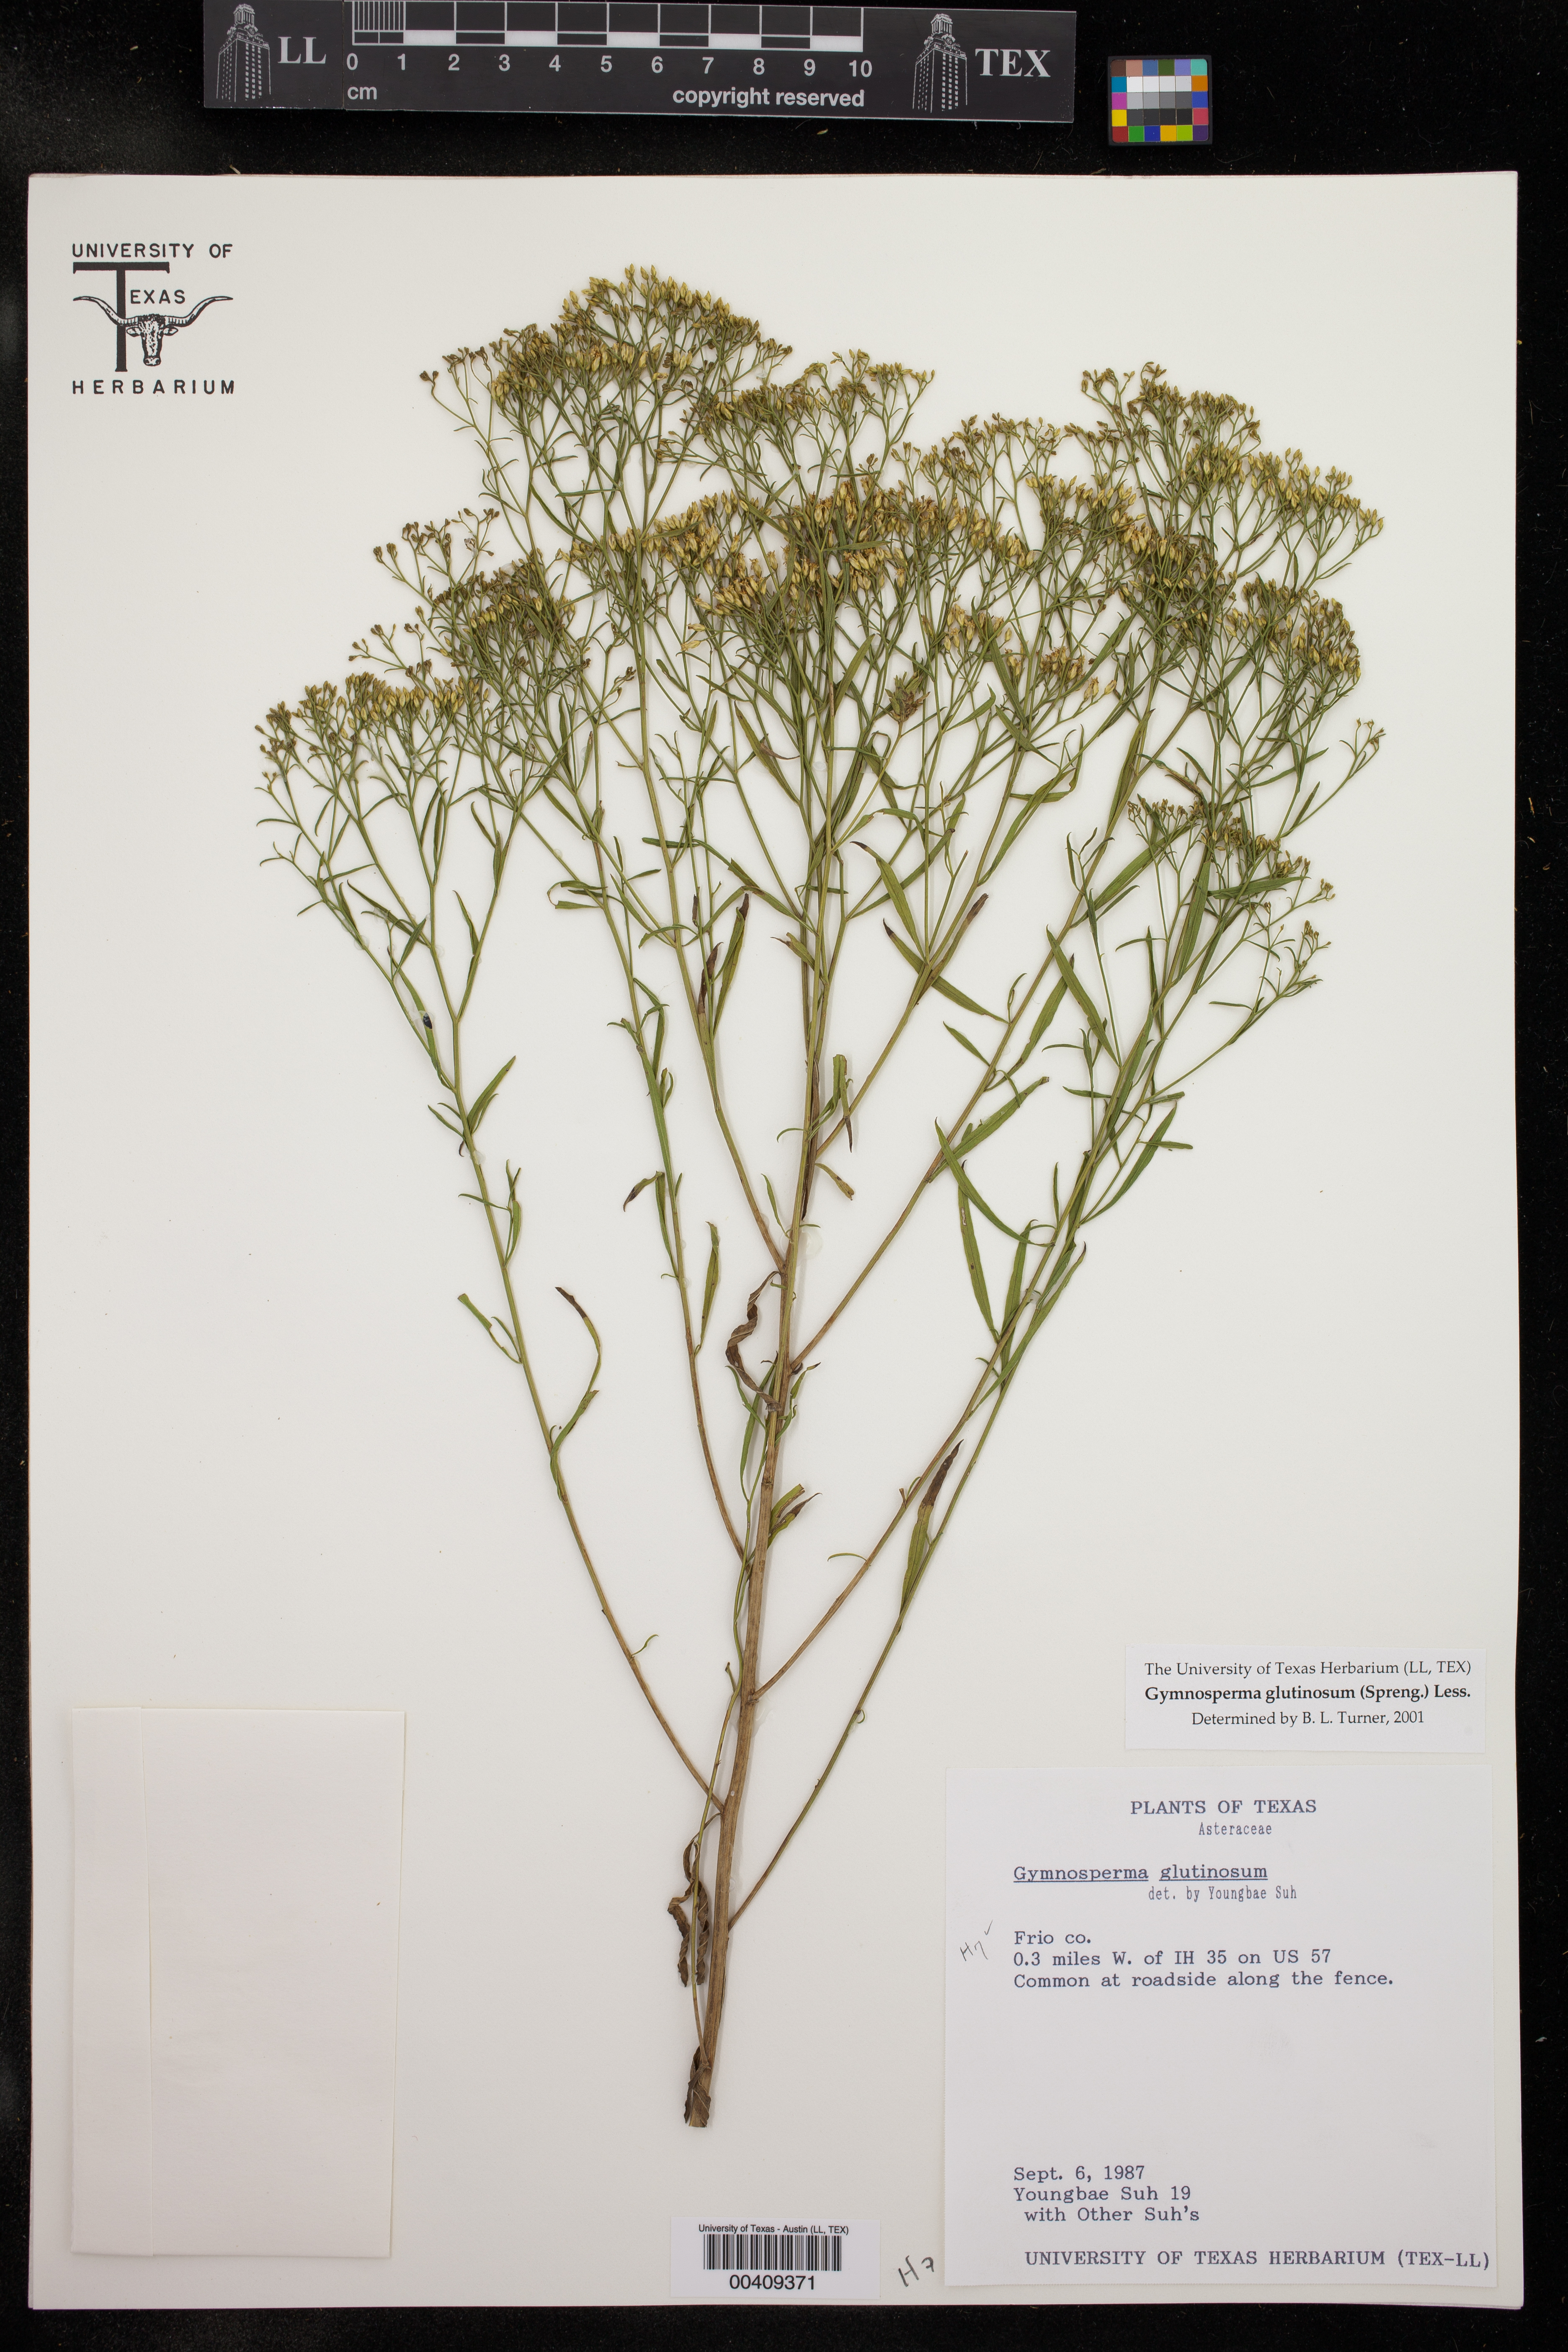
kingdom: Plantae
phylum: Tracheophyta
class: Magnoliopsida
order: Asterales
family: Asteraceae
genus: Gymnosperma
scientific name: Gymnosperma glutinosum
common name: Gumhead
